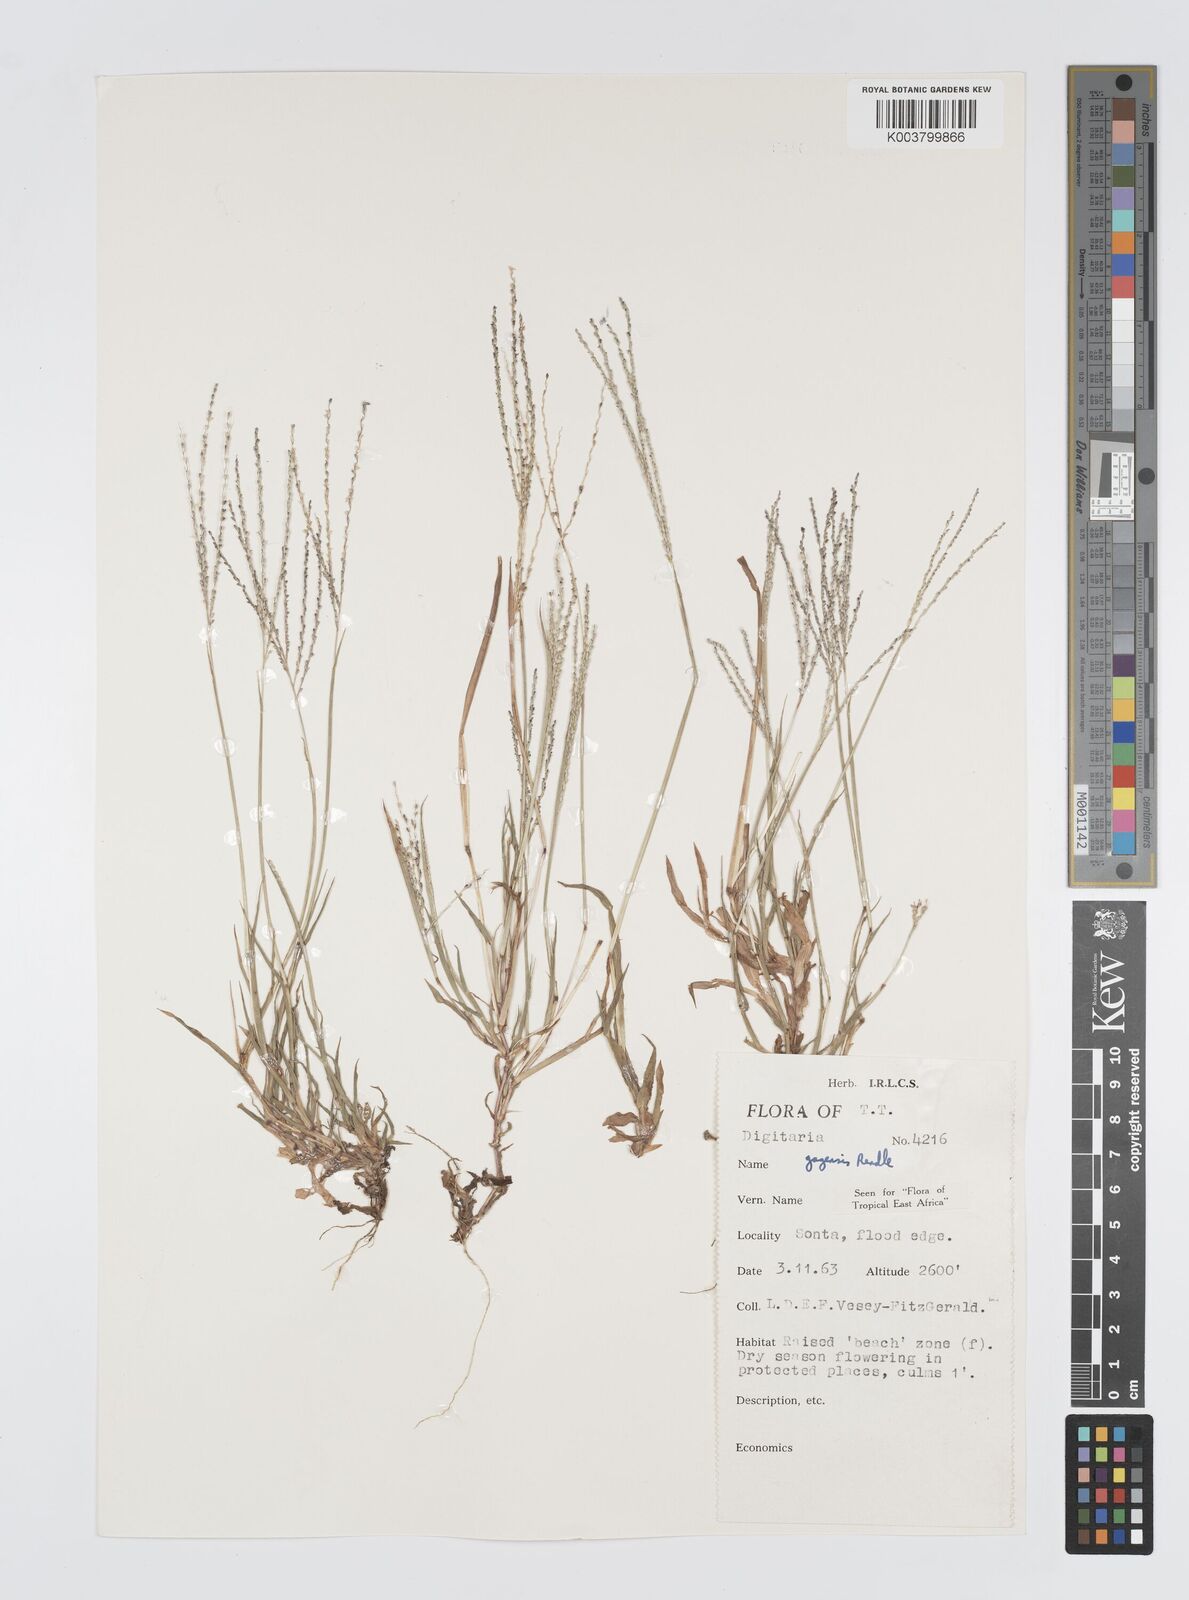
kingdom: Plantae
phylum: Tracheophyta
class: Liliopsida
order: Poales
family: Poaceae
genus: Digitaria
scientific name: Digitaria gazensis
